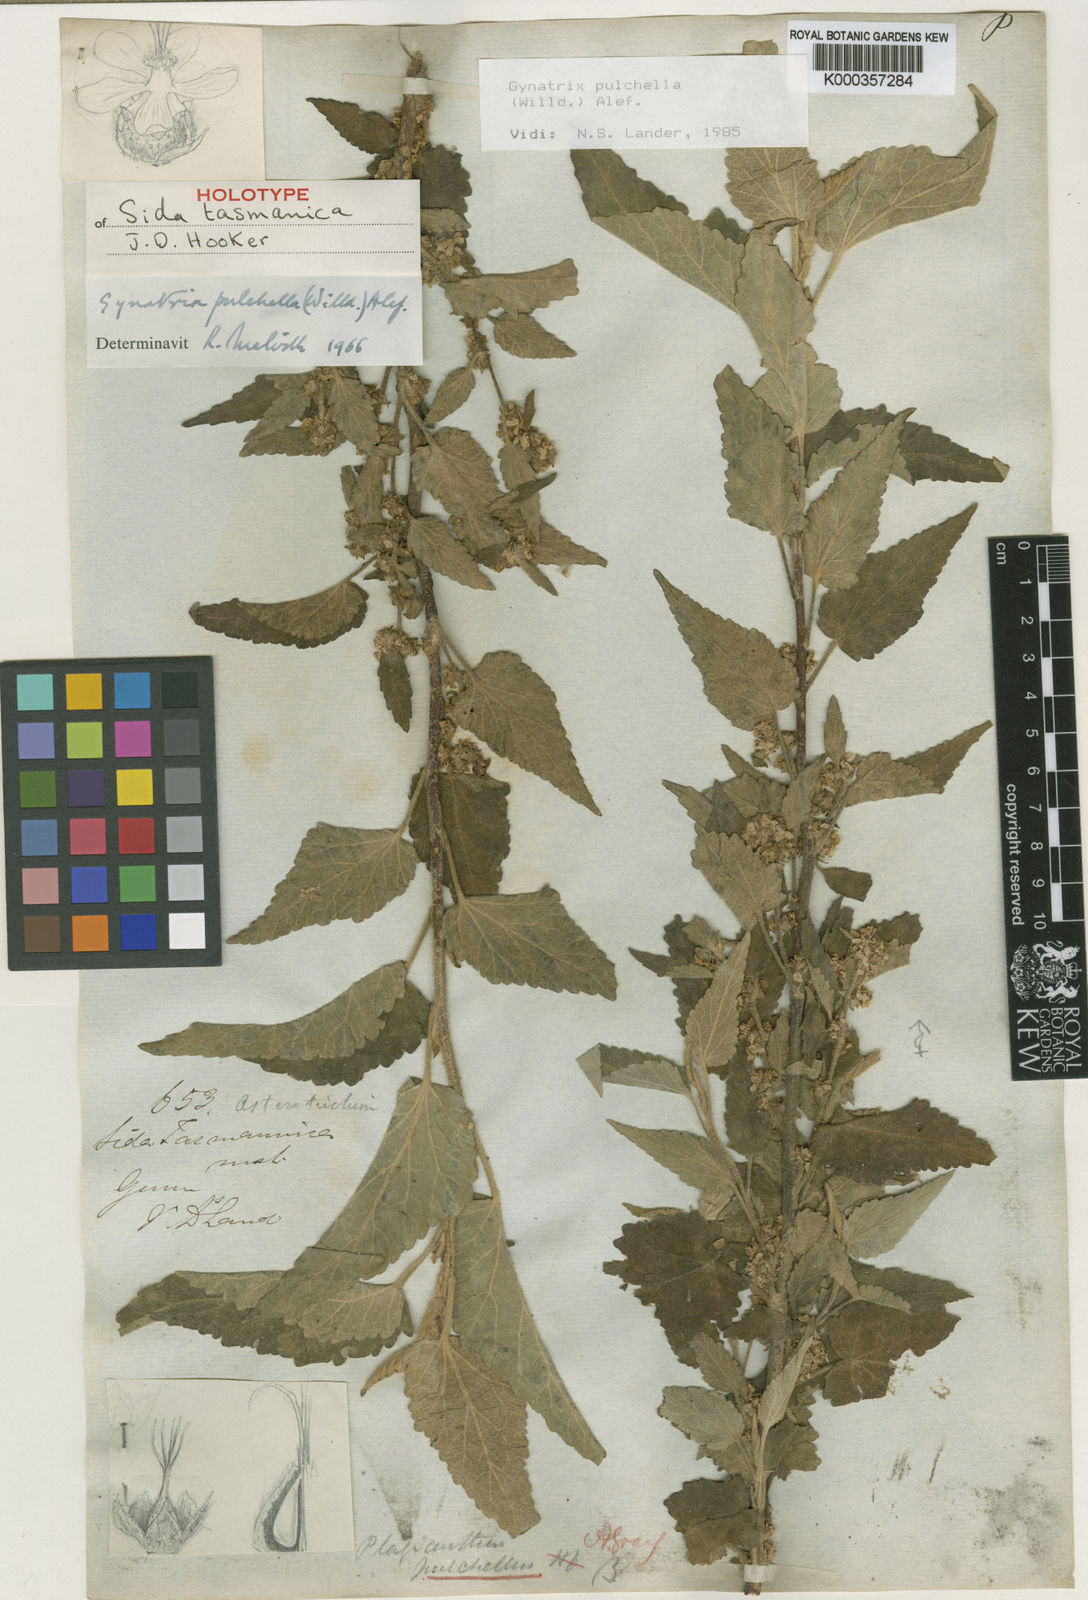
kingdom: Plantae
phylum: Tracheophyta
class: Magnoliopsida
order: Malvales
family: Malvaceae
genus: Gynatrix
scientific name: Gynatrix pulchella
